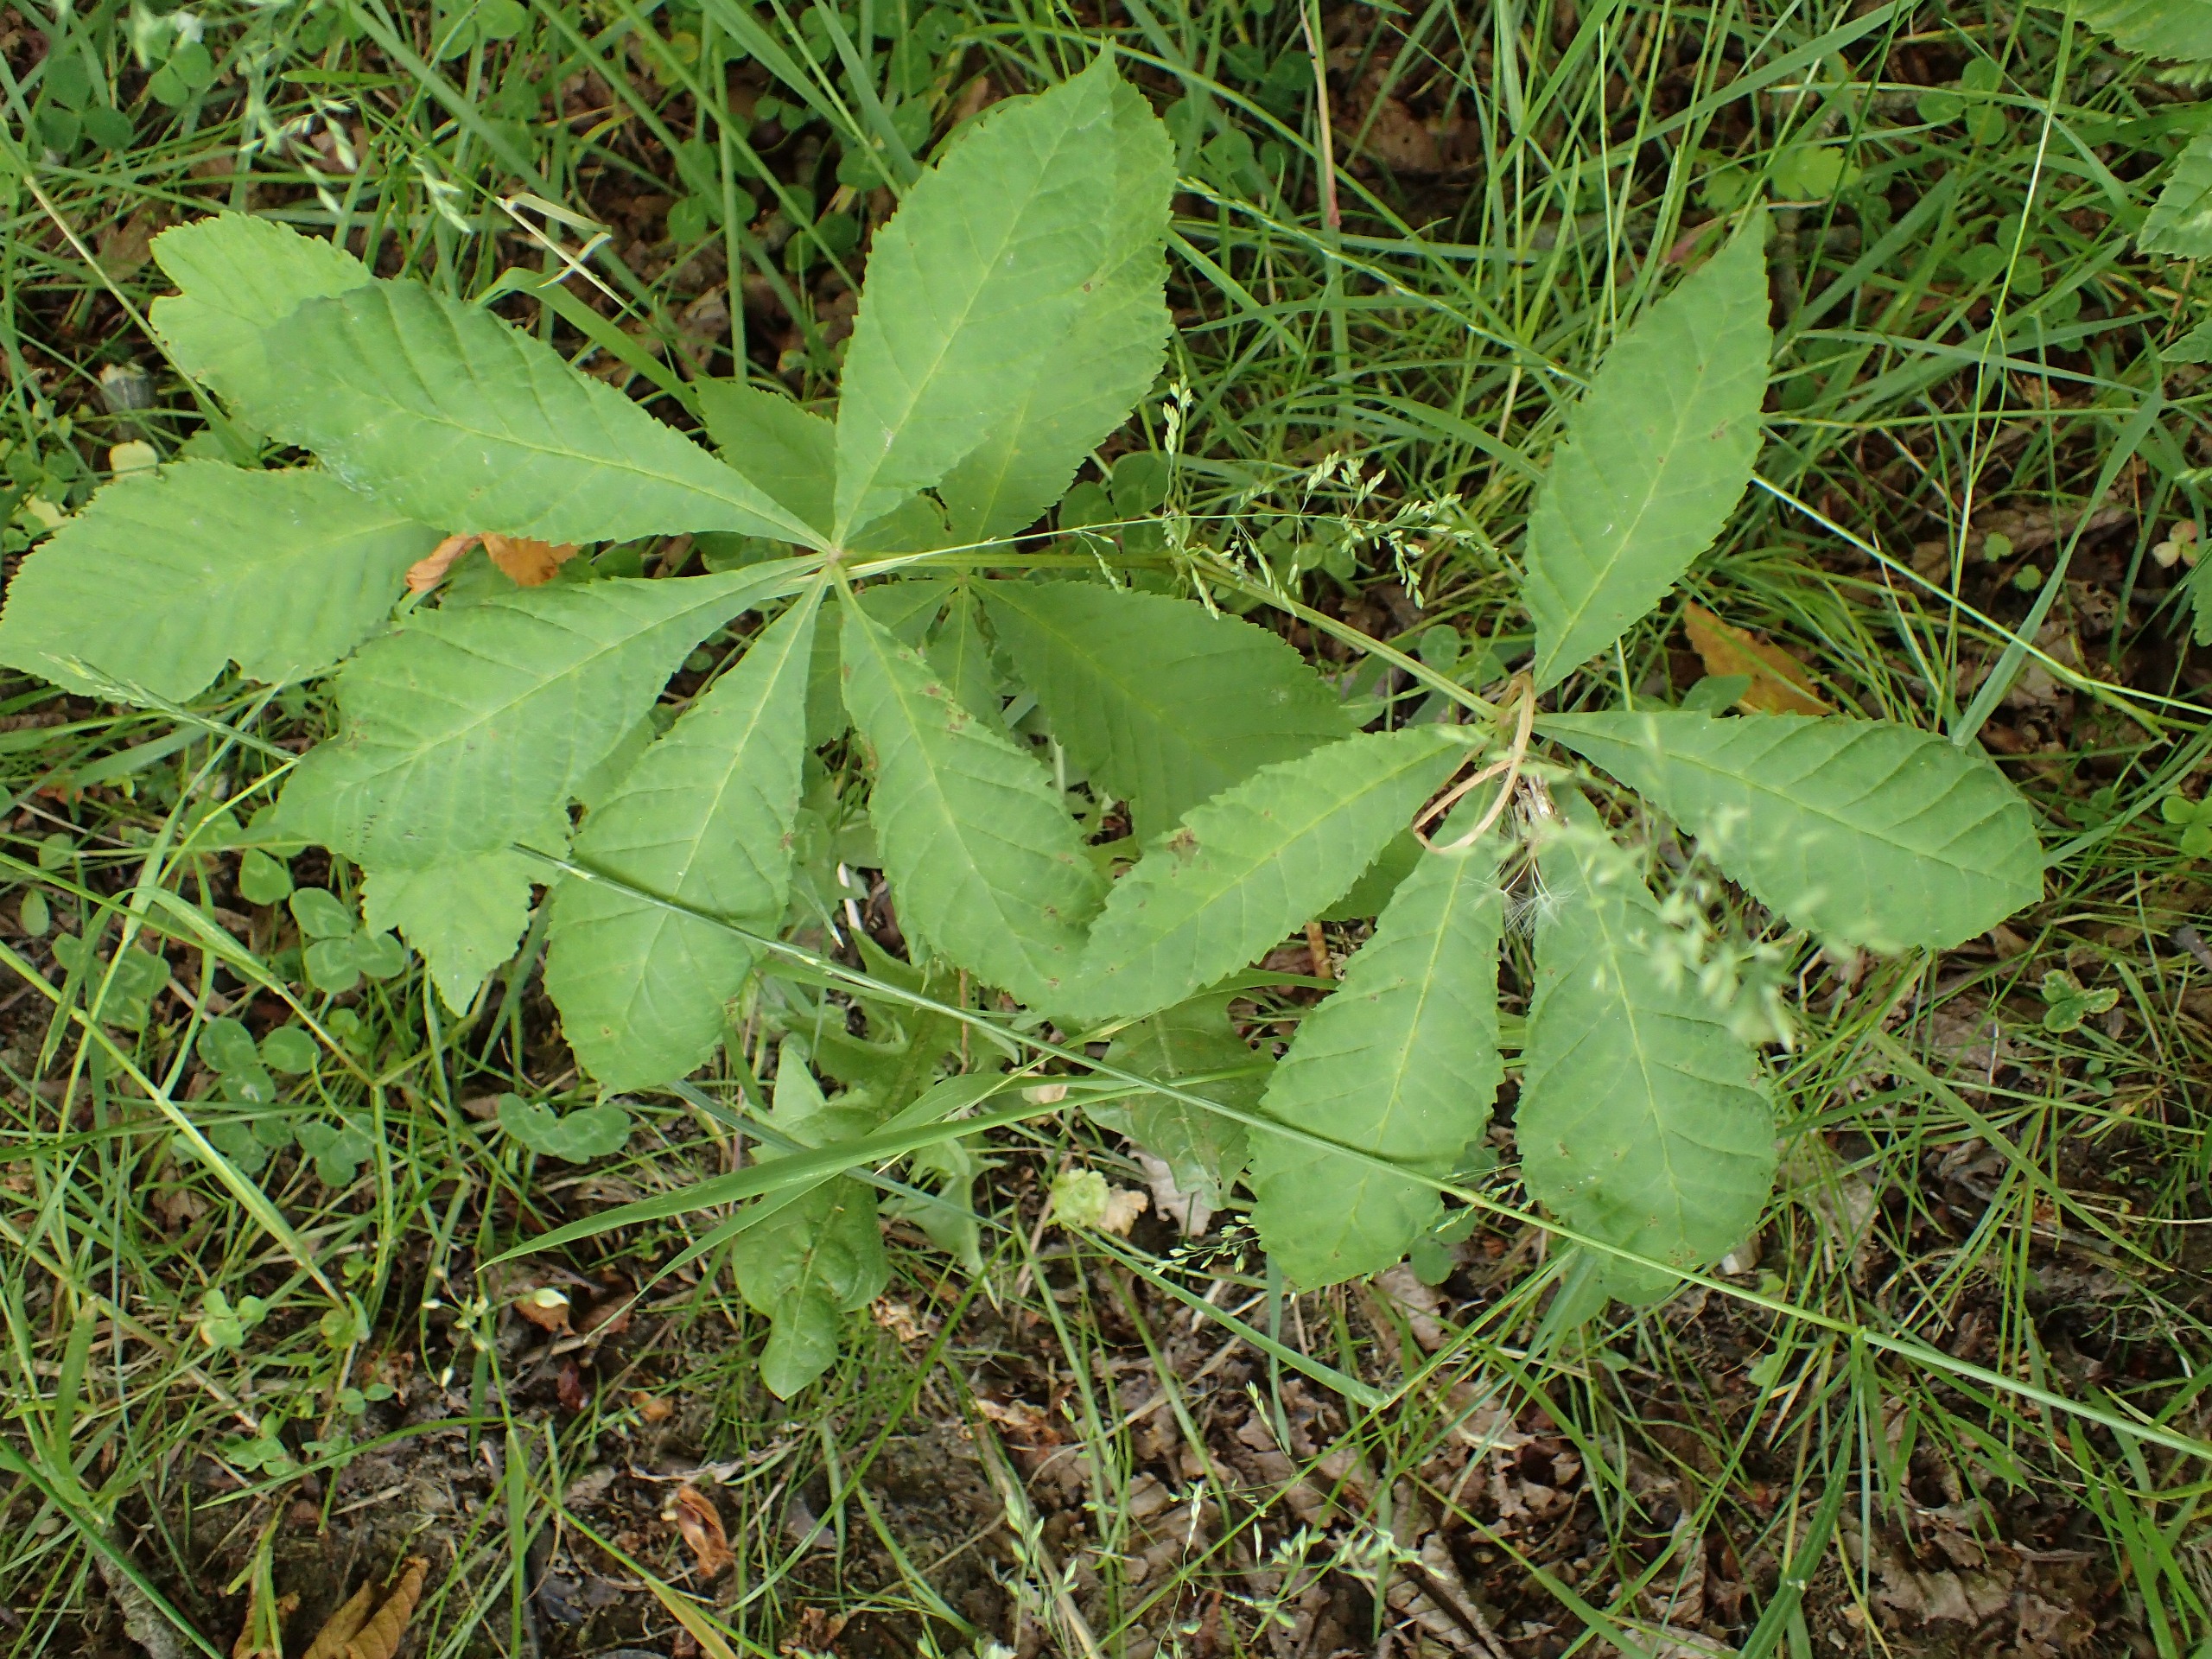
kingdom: Plantae
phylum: Tracheophyta
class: Magnoliopsida
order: Sapindales
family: Sapindaceae
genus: Aesculus
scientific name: Aesculus hippocastanum
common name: Hestekastanie
